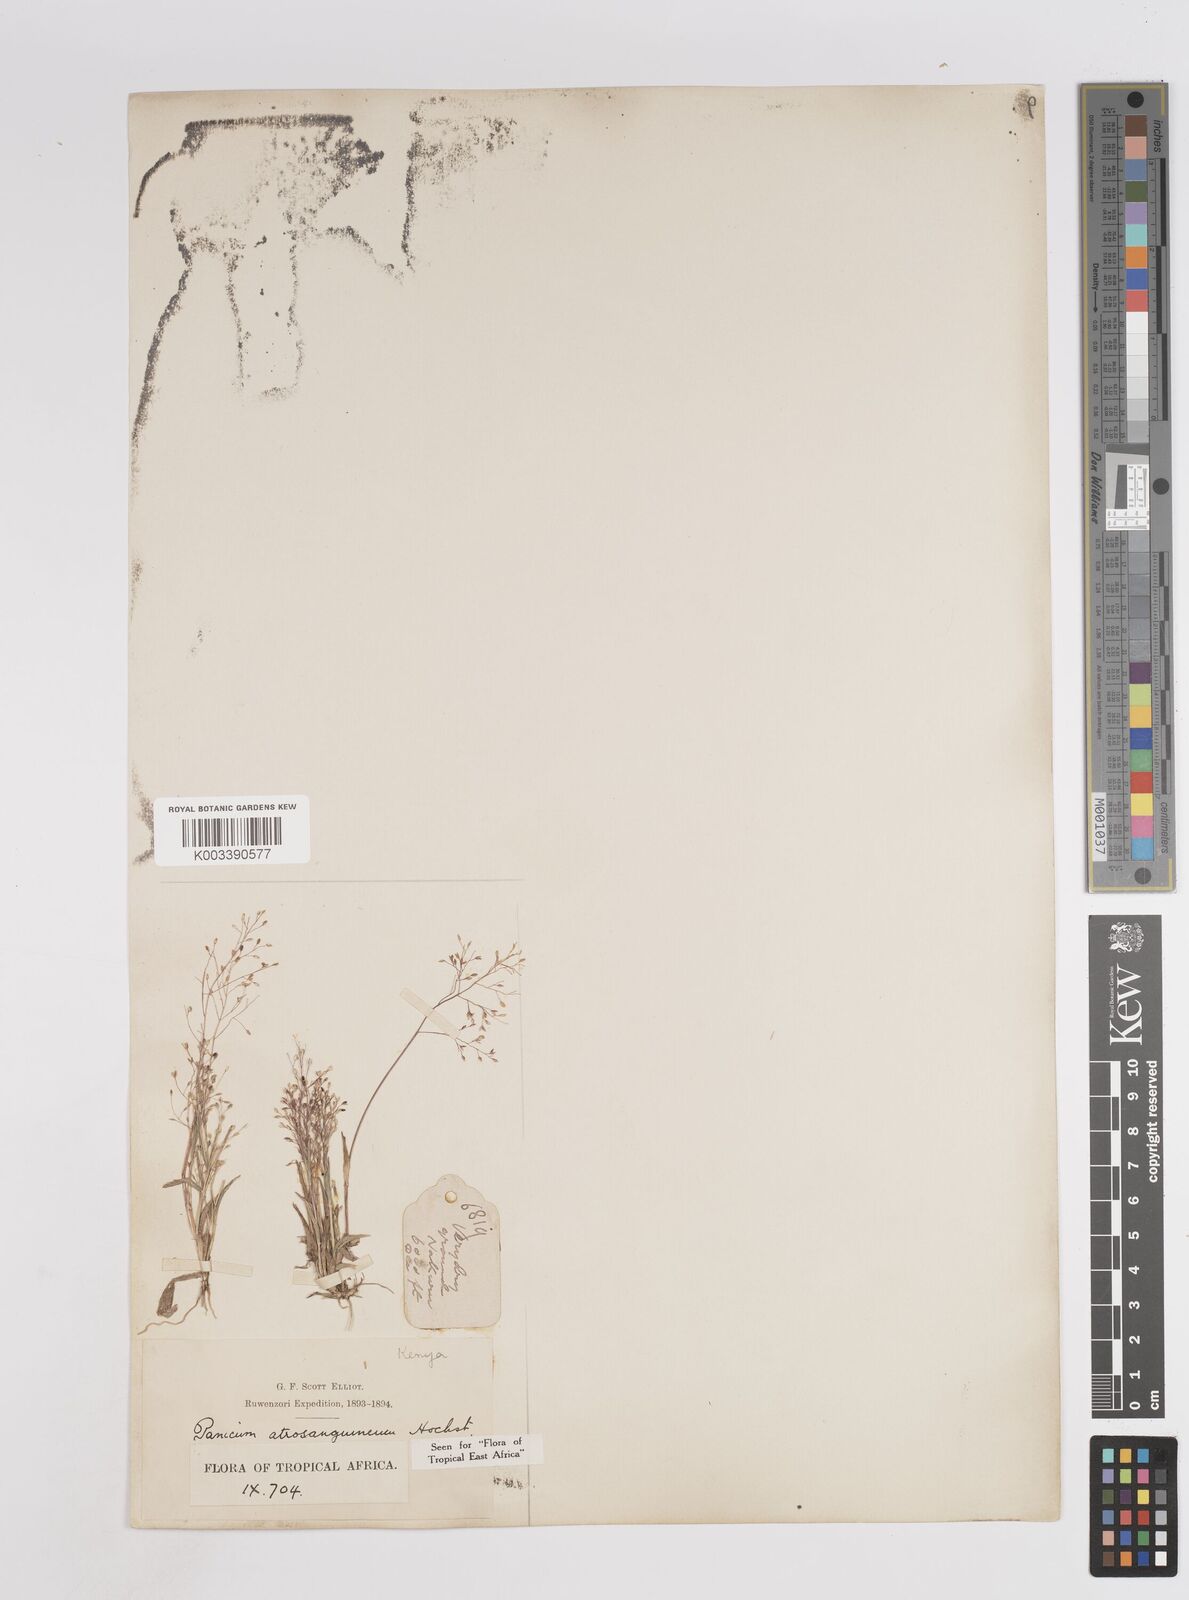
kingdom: Plantae
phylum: Tracheophyta
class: Liliopsida
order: Poales
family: Poaceae
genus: Panicum
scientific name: Panicum atrosanguineum
